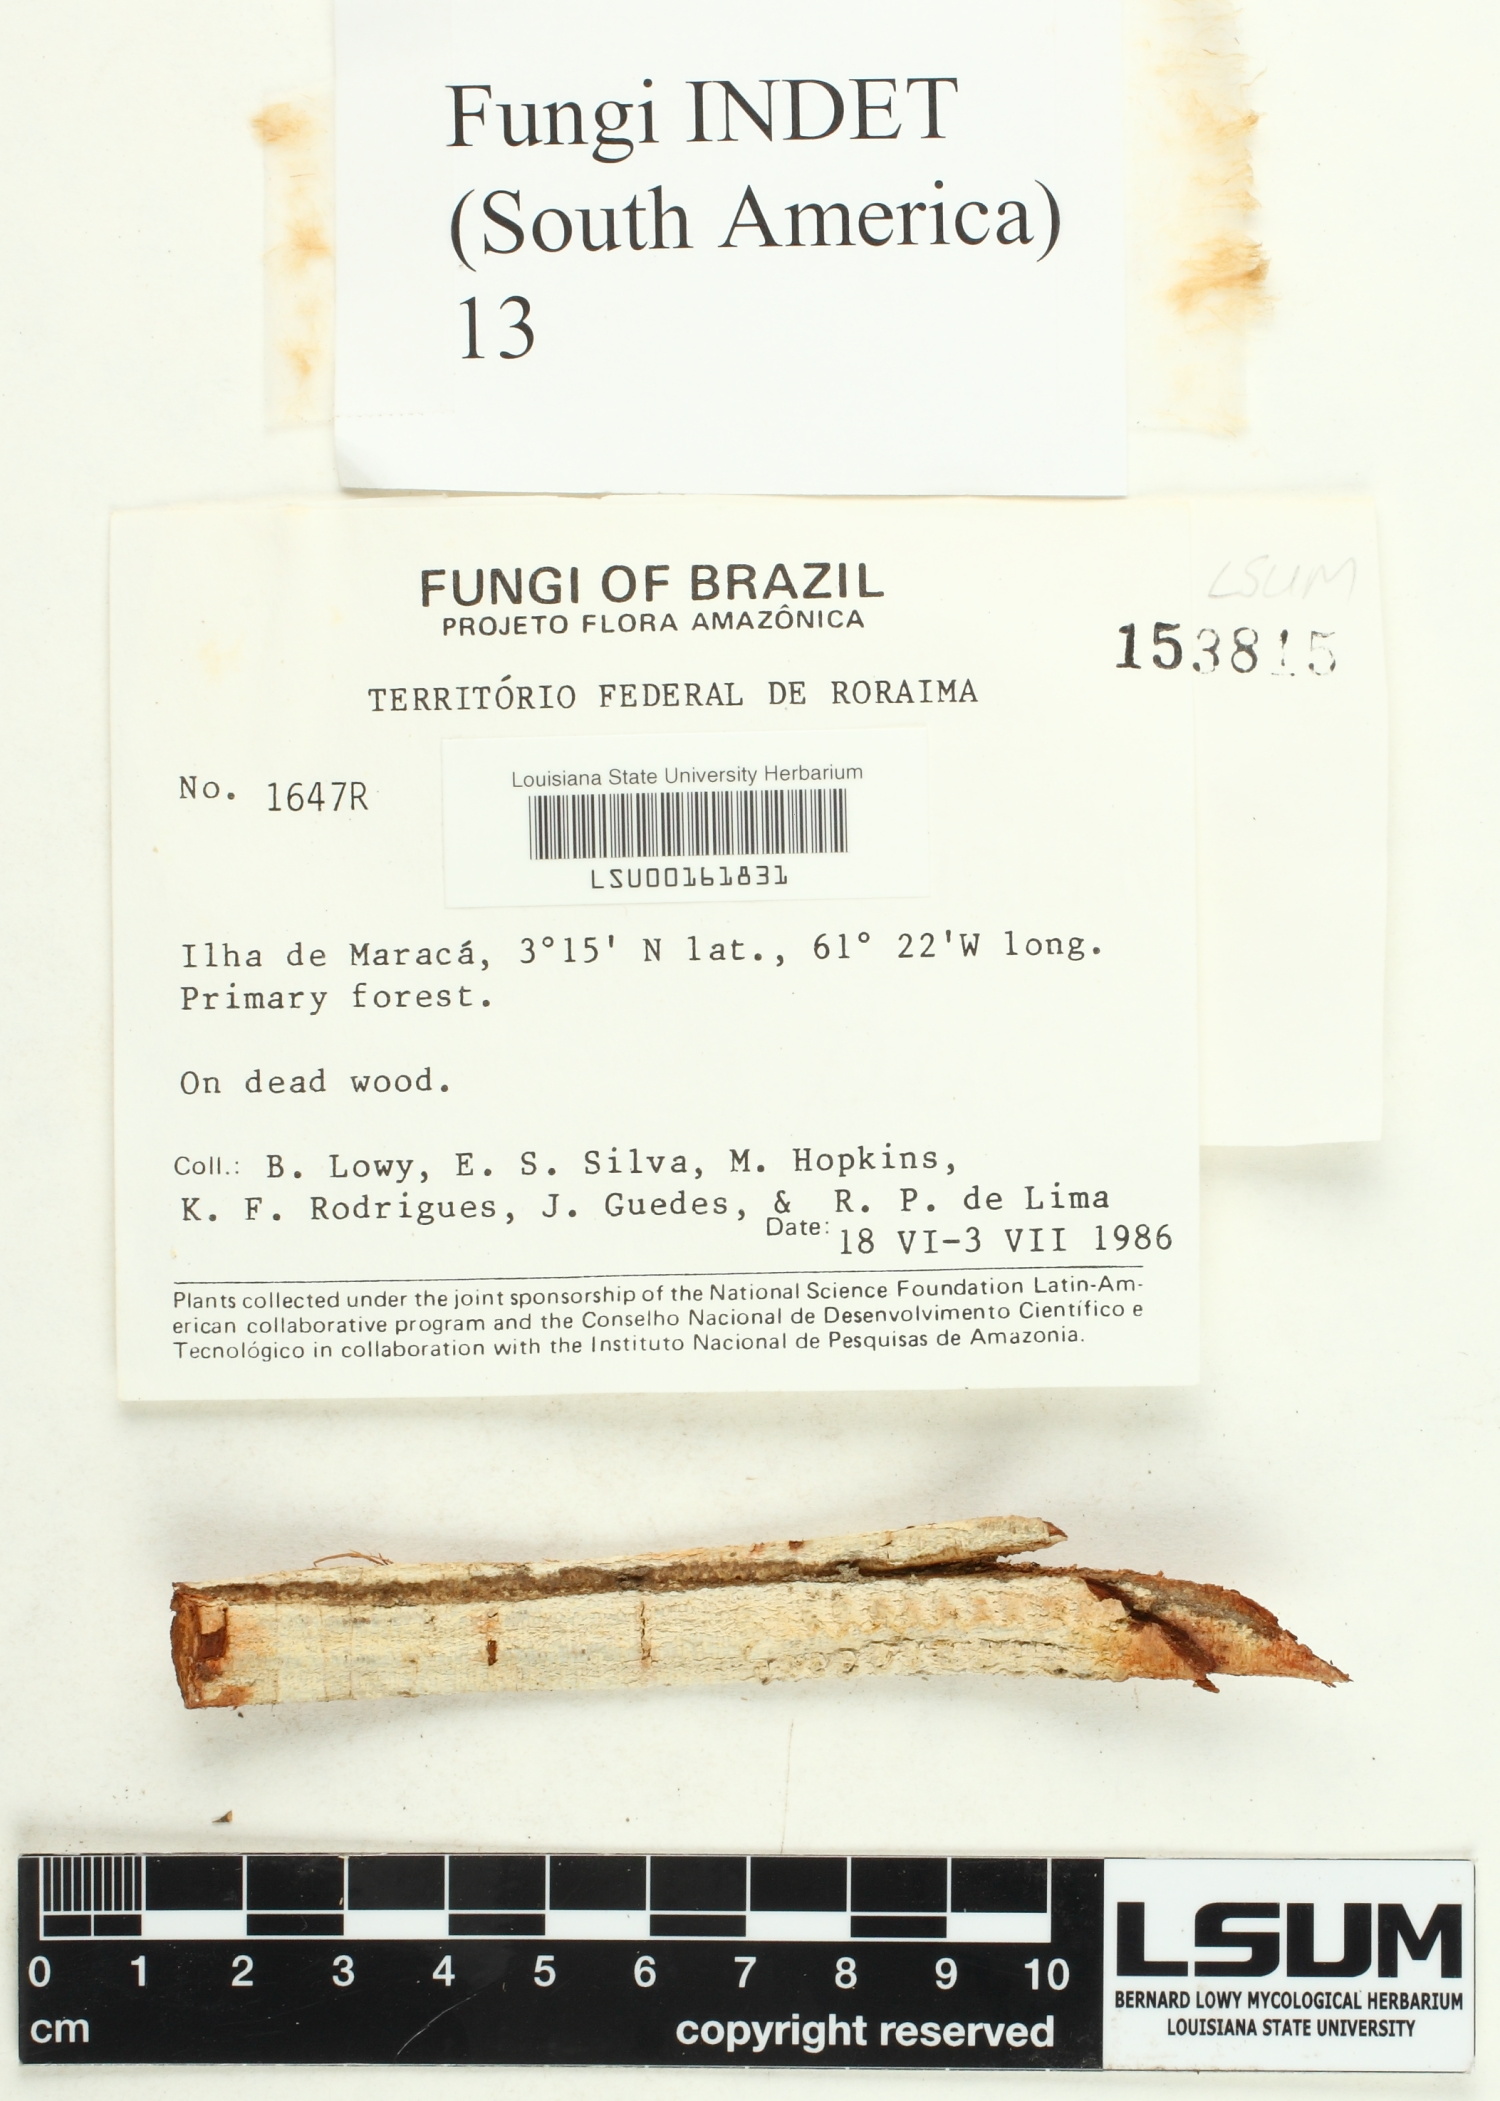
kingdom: Fungi
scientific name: Fungi
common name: Fungi
